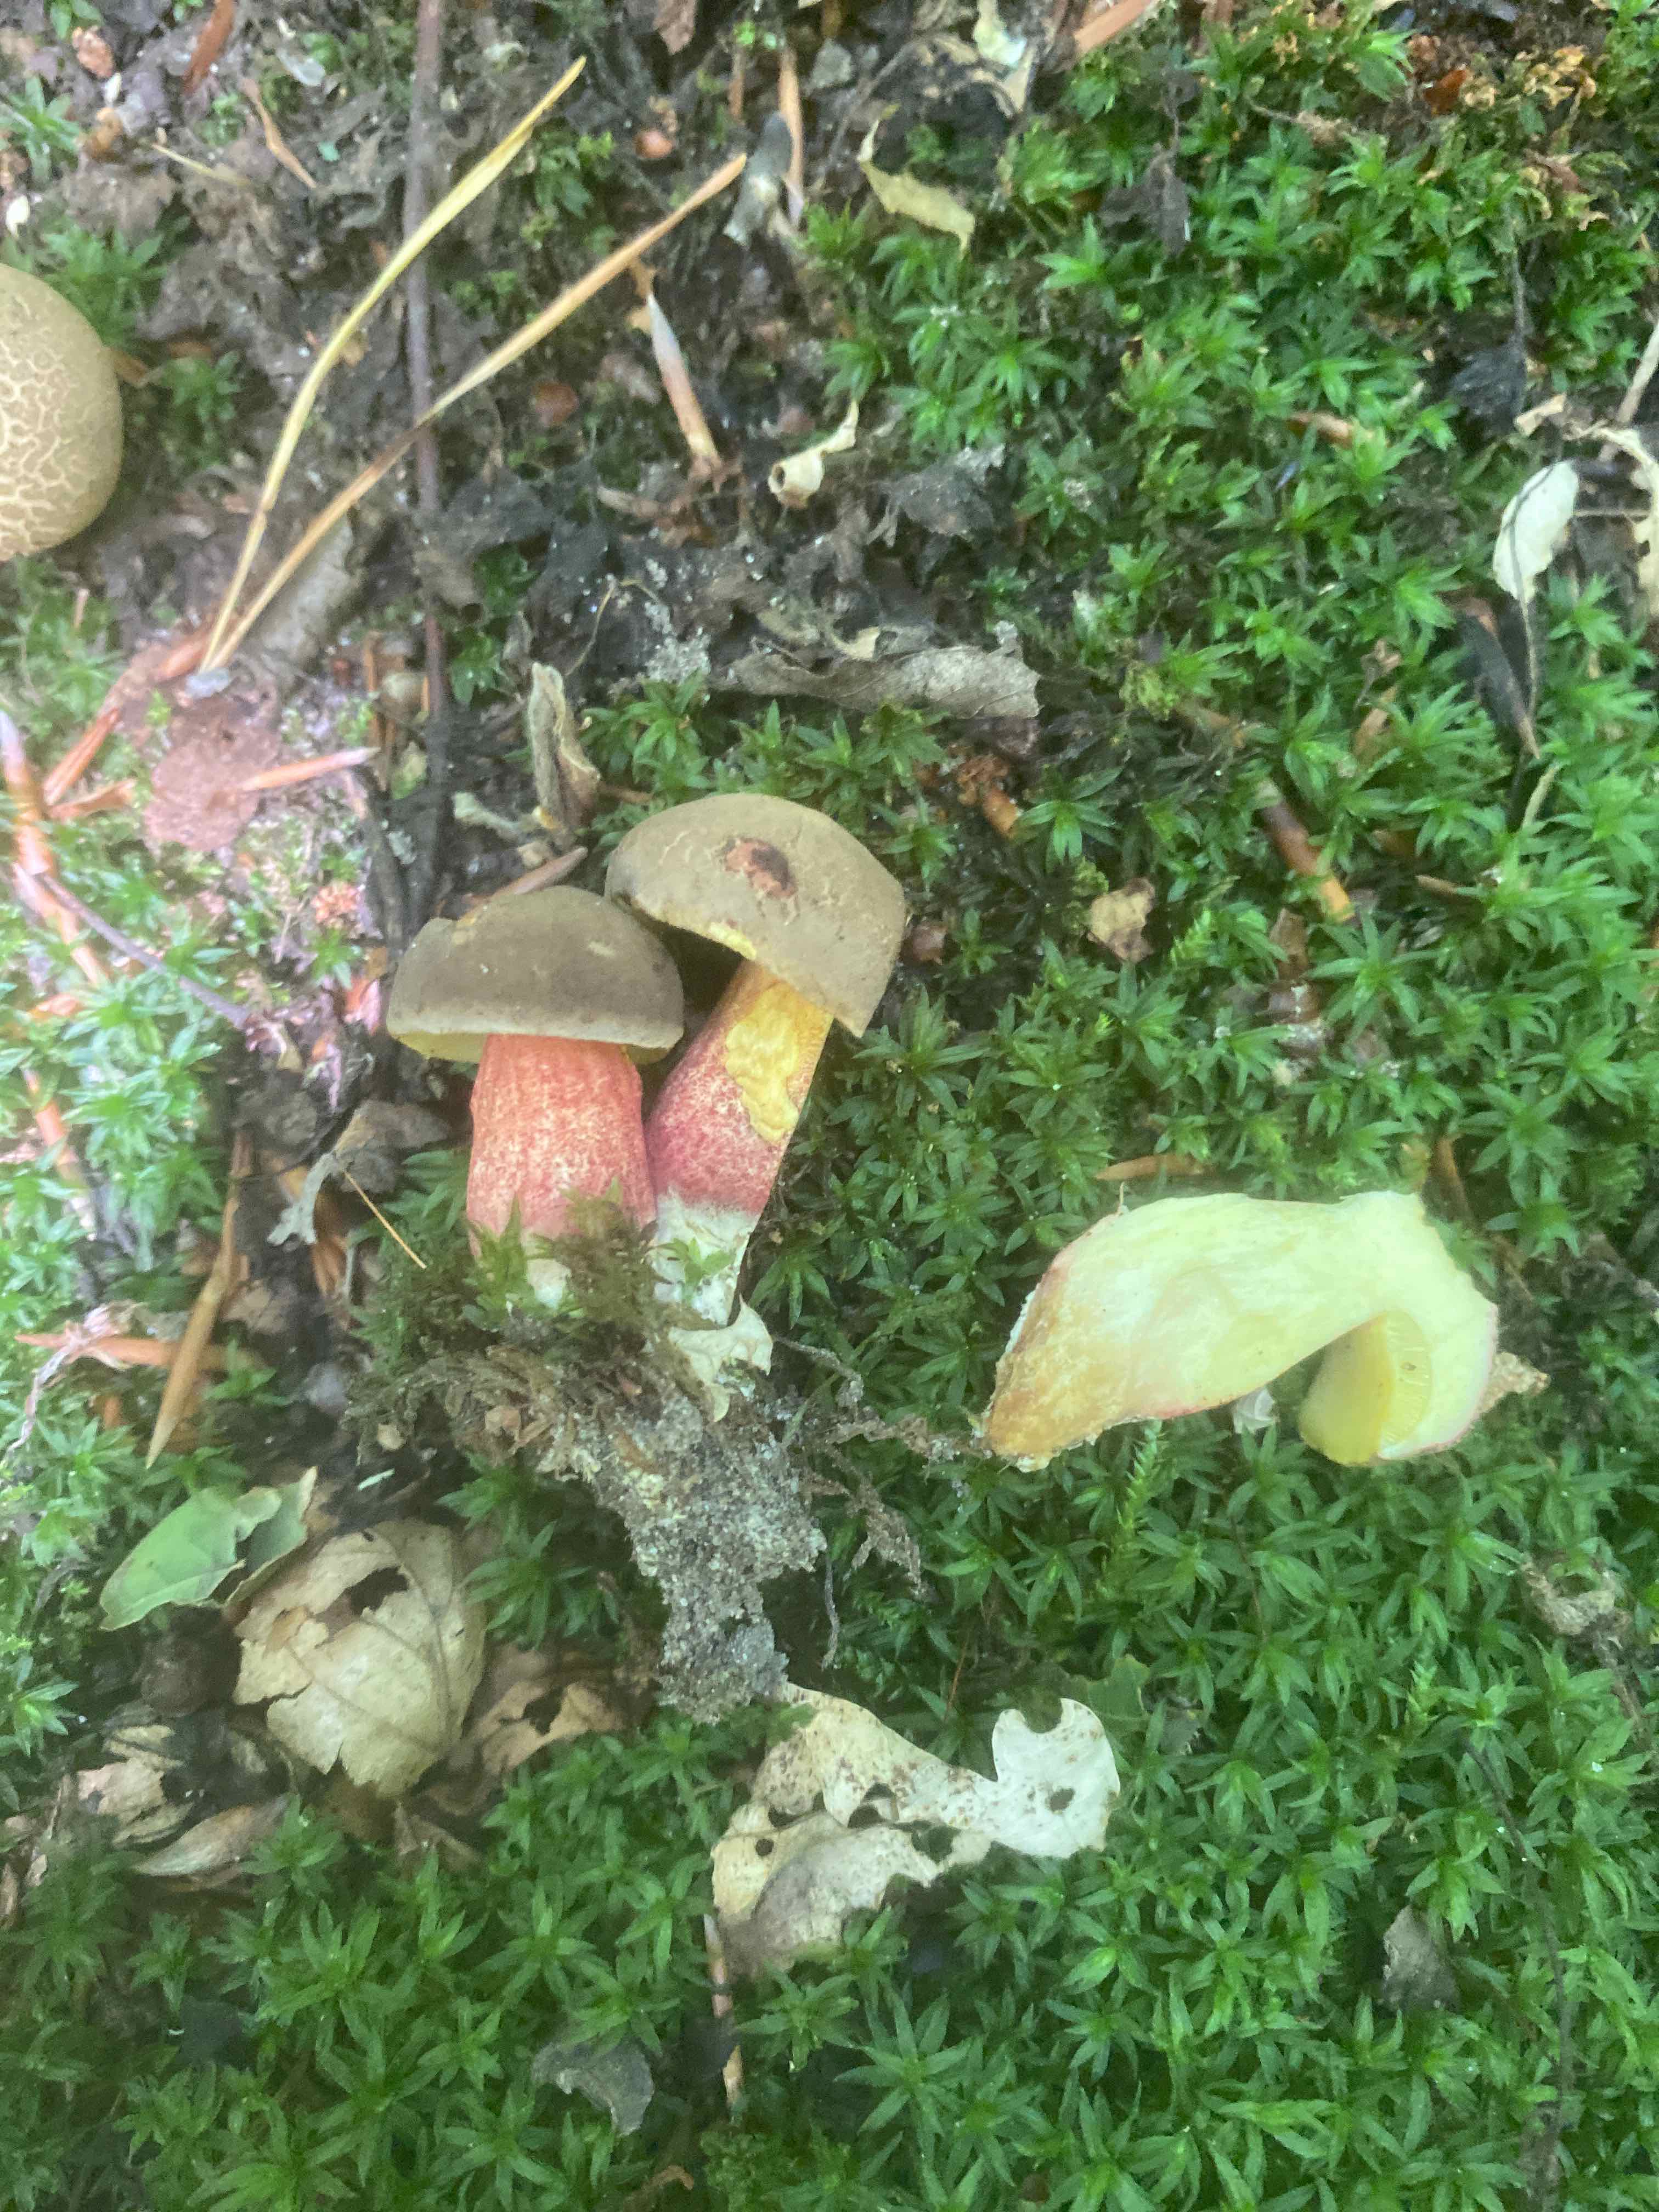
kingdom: Fungi
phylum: Basidiomycota
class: Agaricomycetes
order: Boletales
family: Boletaceae
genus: Xerocomellus
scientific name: Xerocomellus chrysenteron
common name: rødsprukken rørhat
